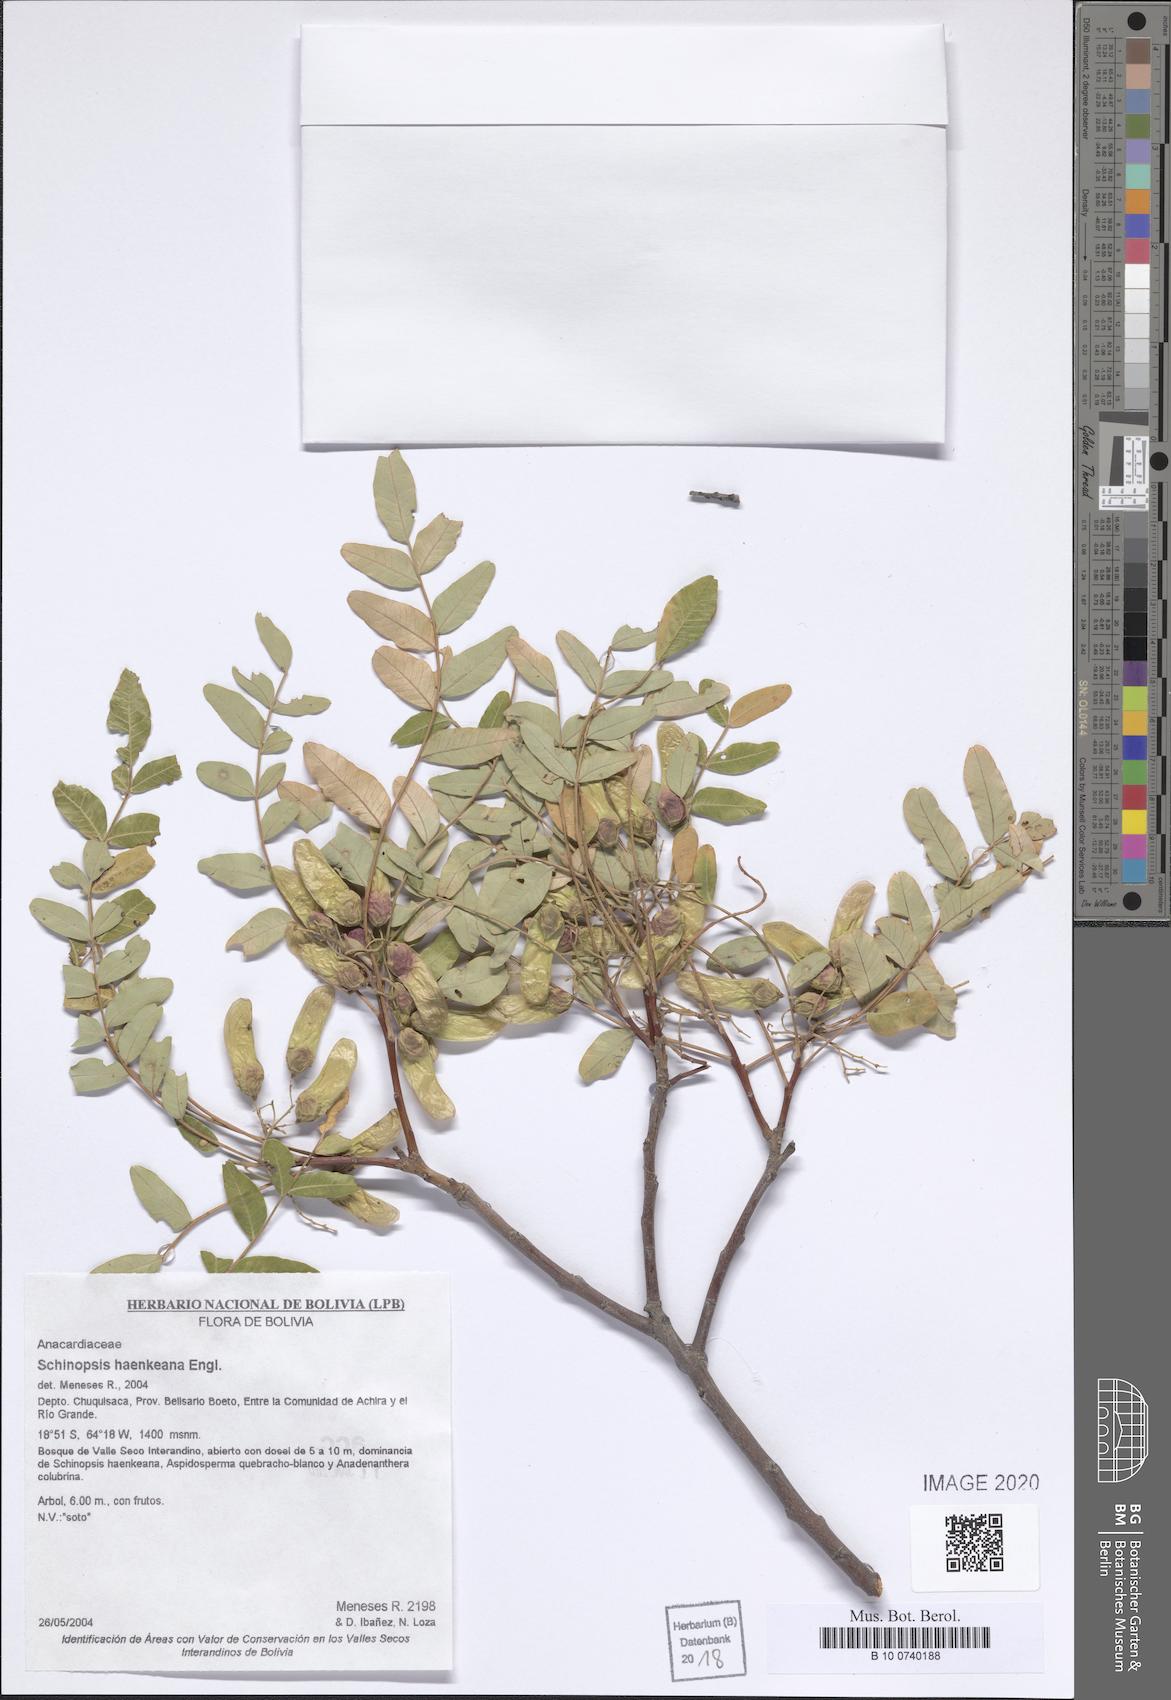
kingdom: Plantae
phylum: Tracheophyta
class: Magnoliopsida
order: Sapindales
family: Anacardiaceae
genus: Schinopsis
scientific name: Schinopsis lorentzii
